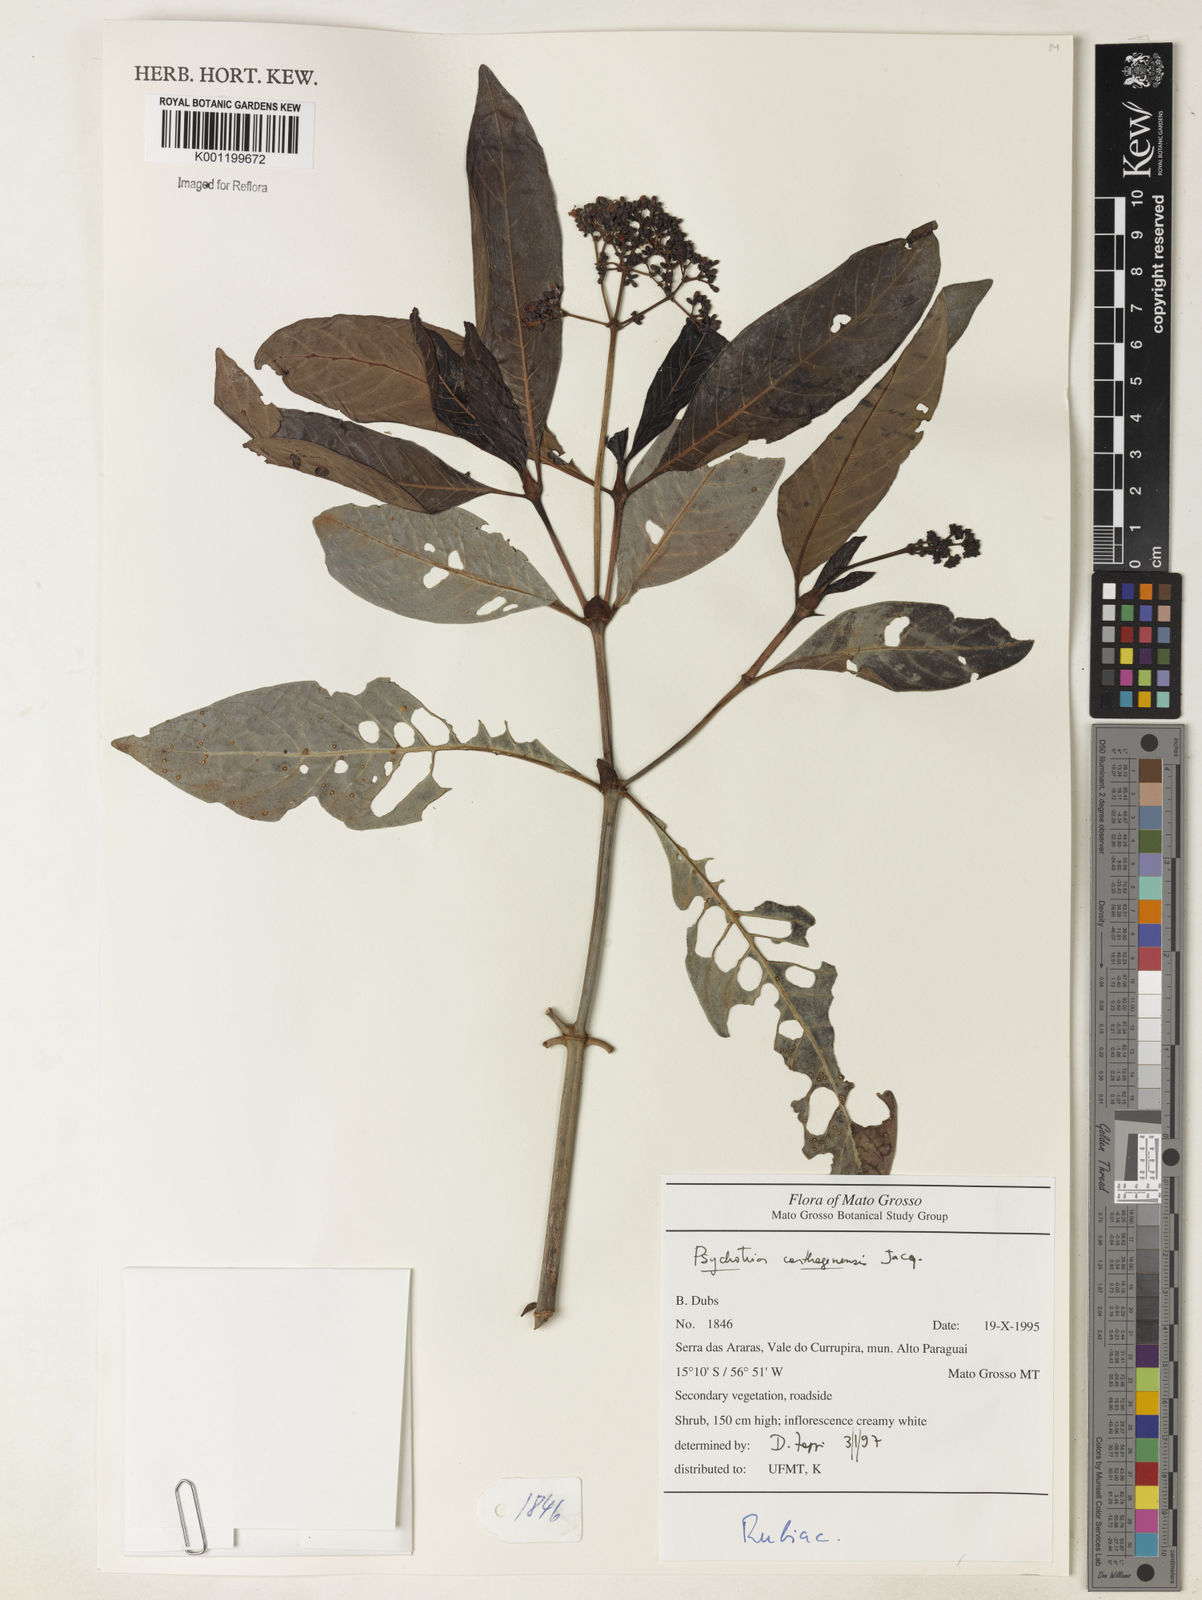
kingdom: Plantae
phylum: Tracheophyta
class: Magnoliopsida
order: Gentianales
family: Rubiaceae
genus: Psychotria
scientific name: Psychotria carthagenensis
